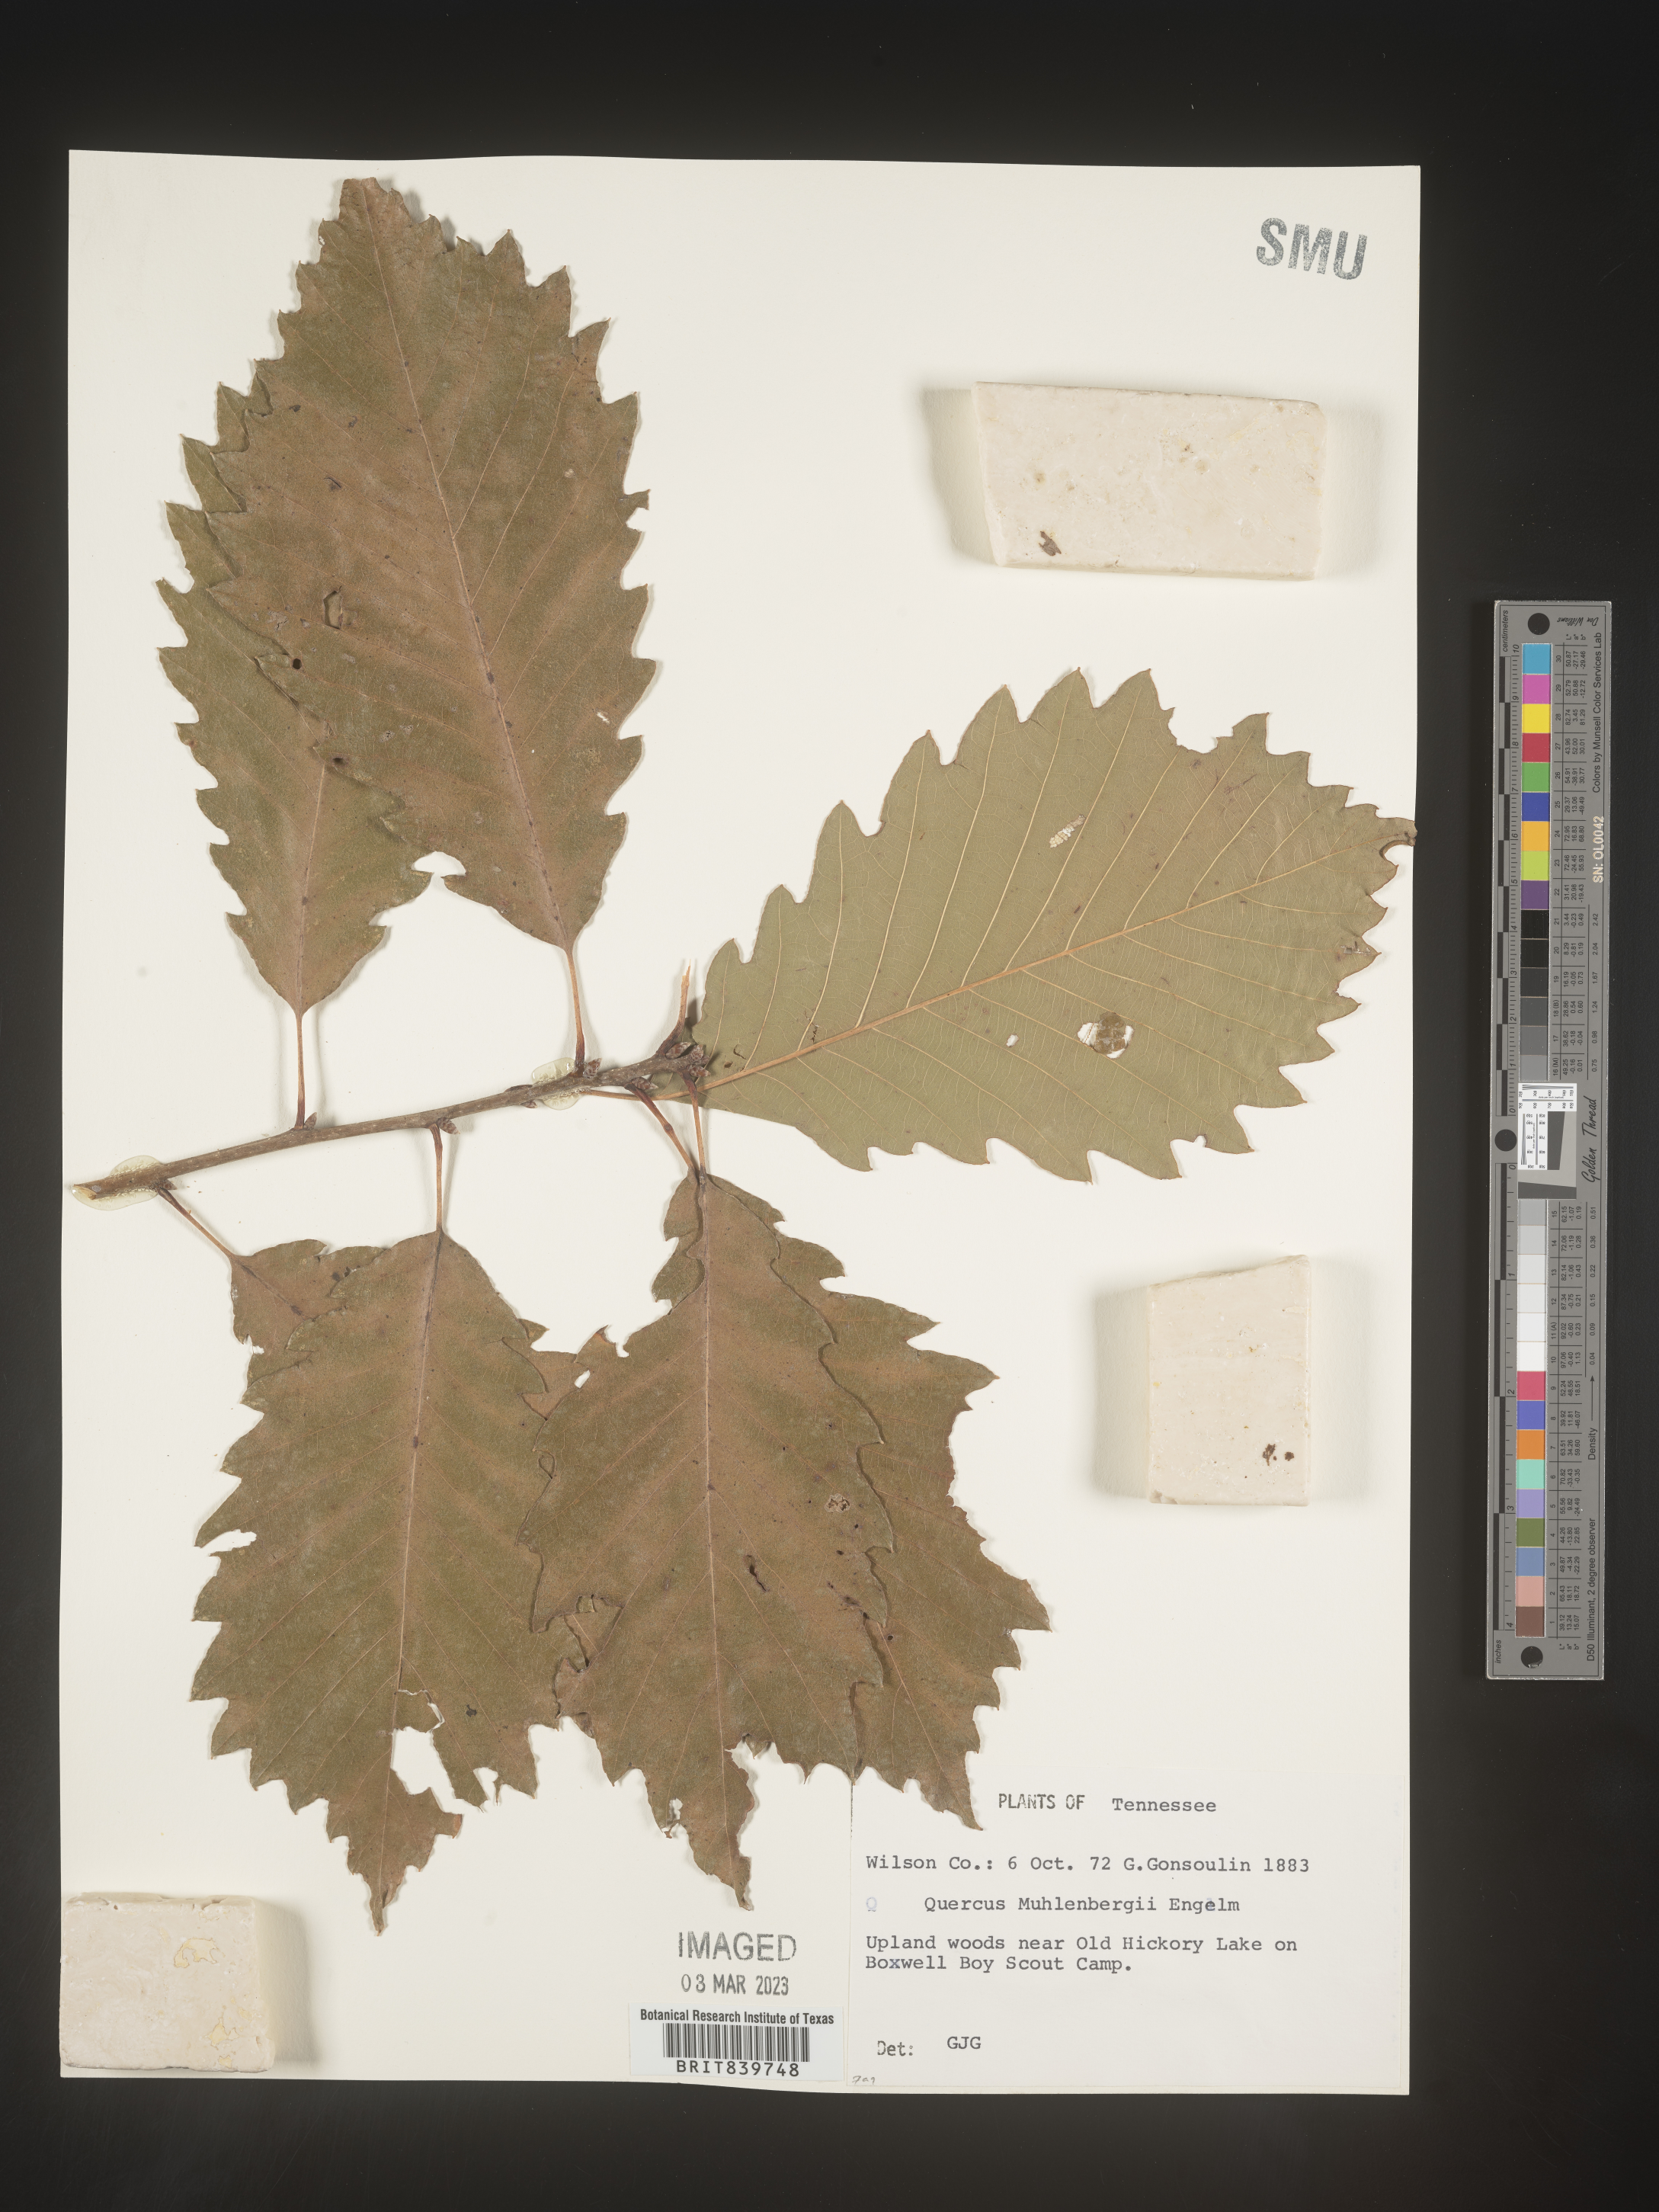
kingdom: Plantae
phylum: Tracheophyta
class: Magnoliopsida
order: Fagales
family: Fagaceae
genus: Quercus
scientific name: Quercus muehlenbergii
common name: Chinkapin oak
